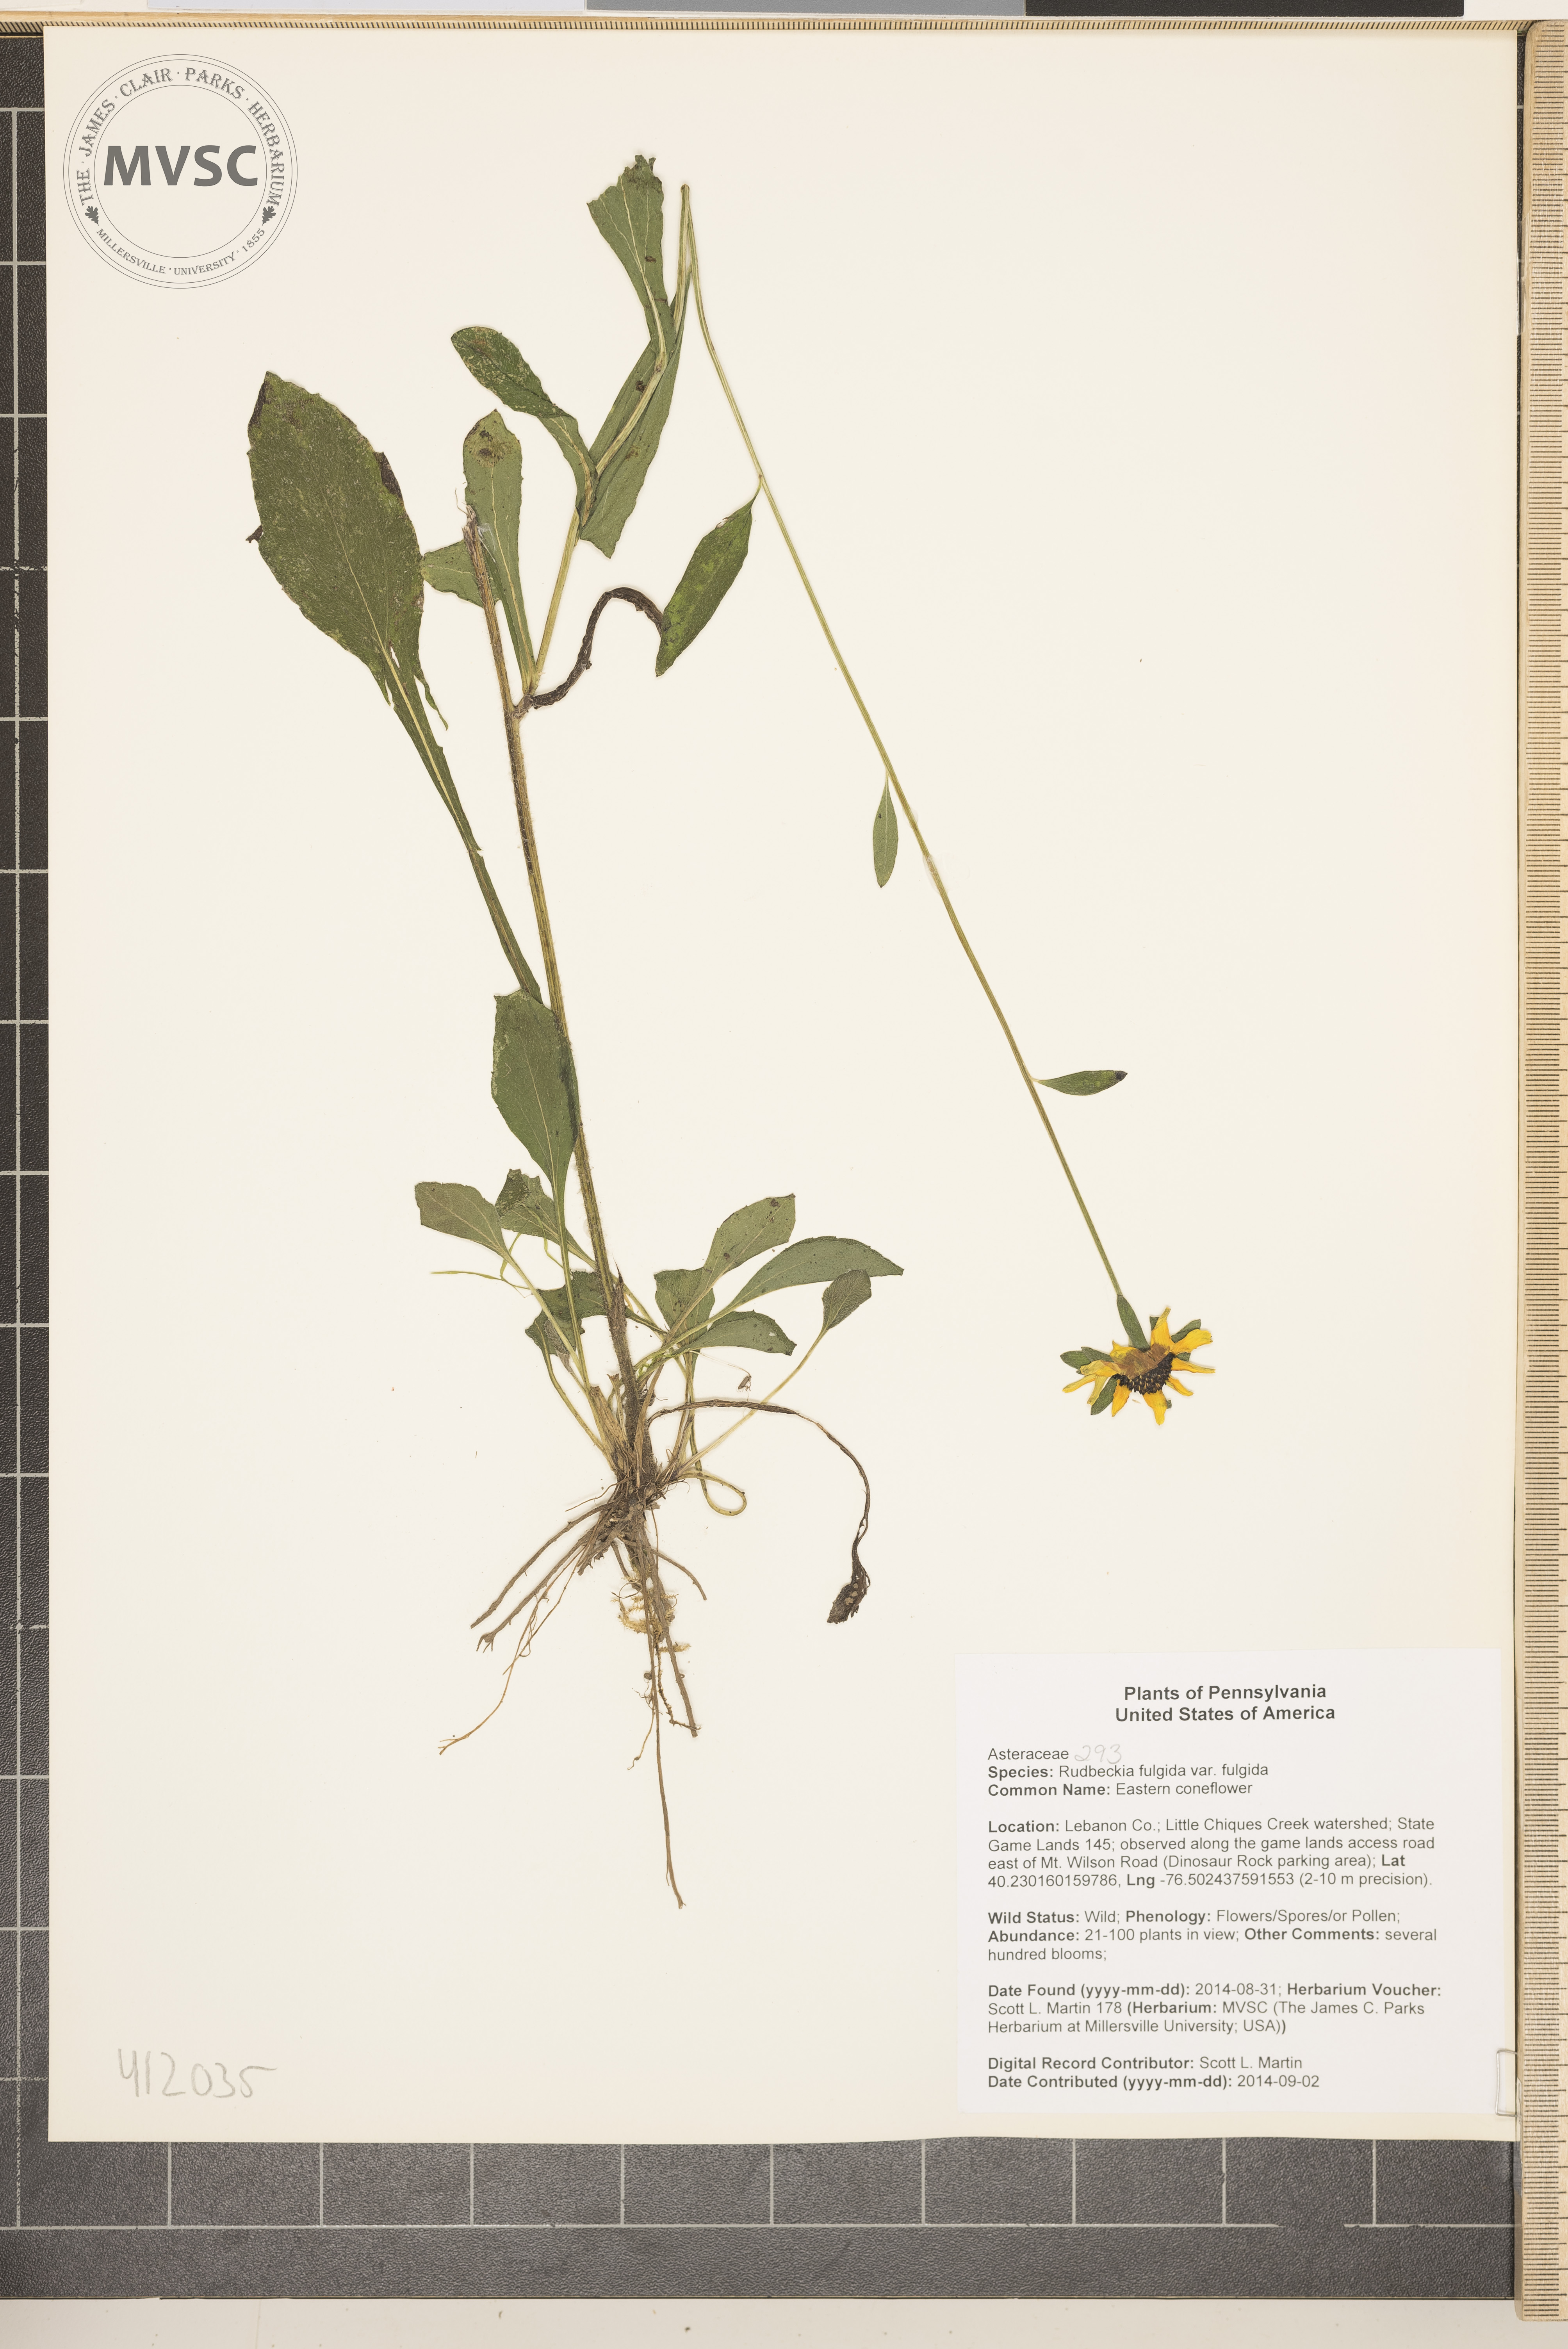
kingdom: Plantae
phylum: Tracheophyta
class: Magnoliopsida
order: Asterales
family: Asteraceae
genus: Rudbeckia
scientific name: Rudbeckia fulgida
